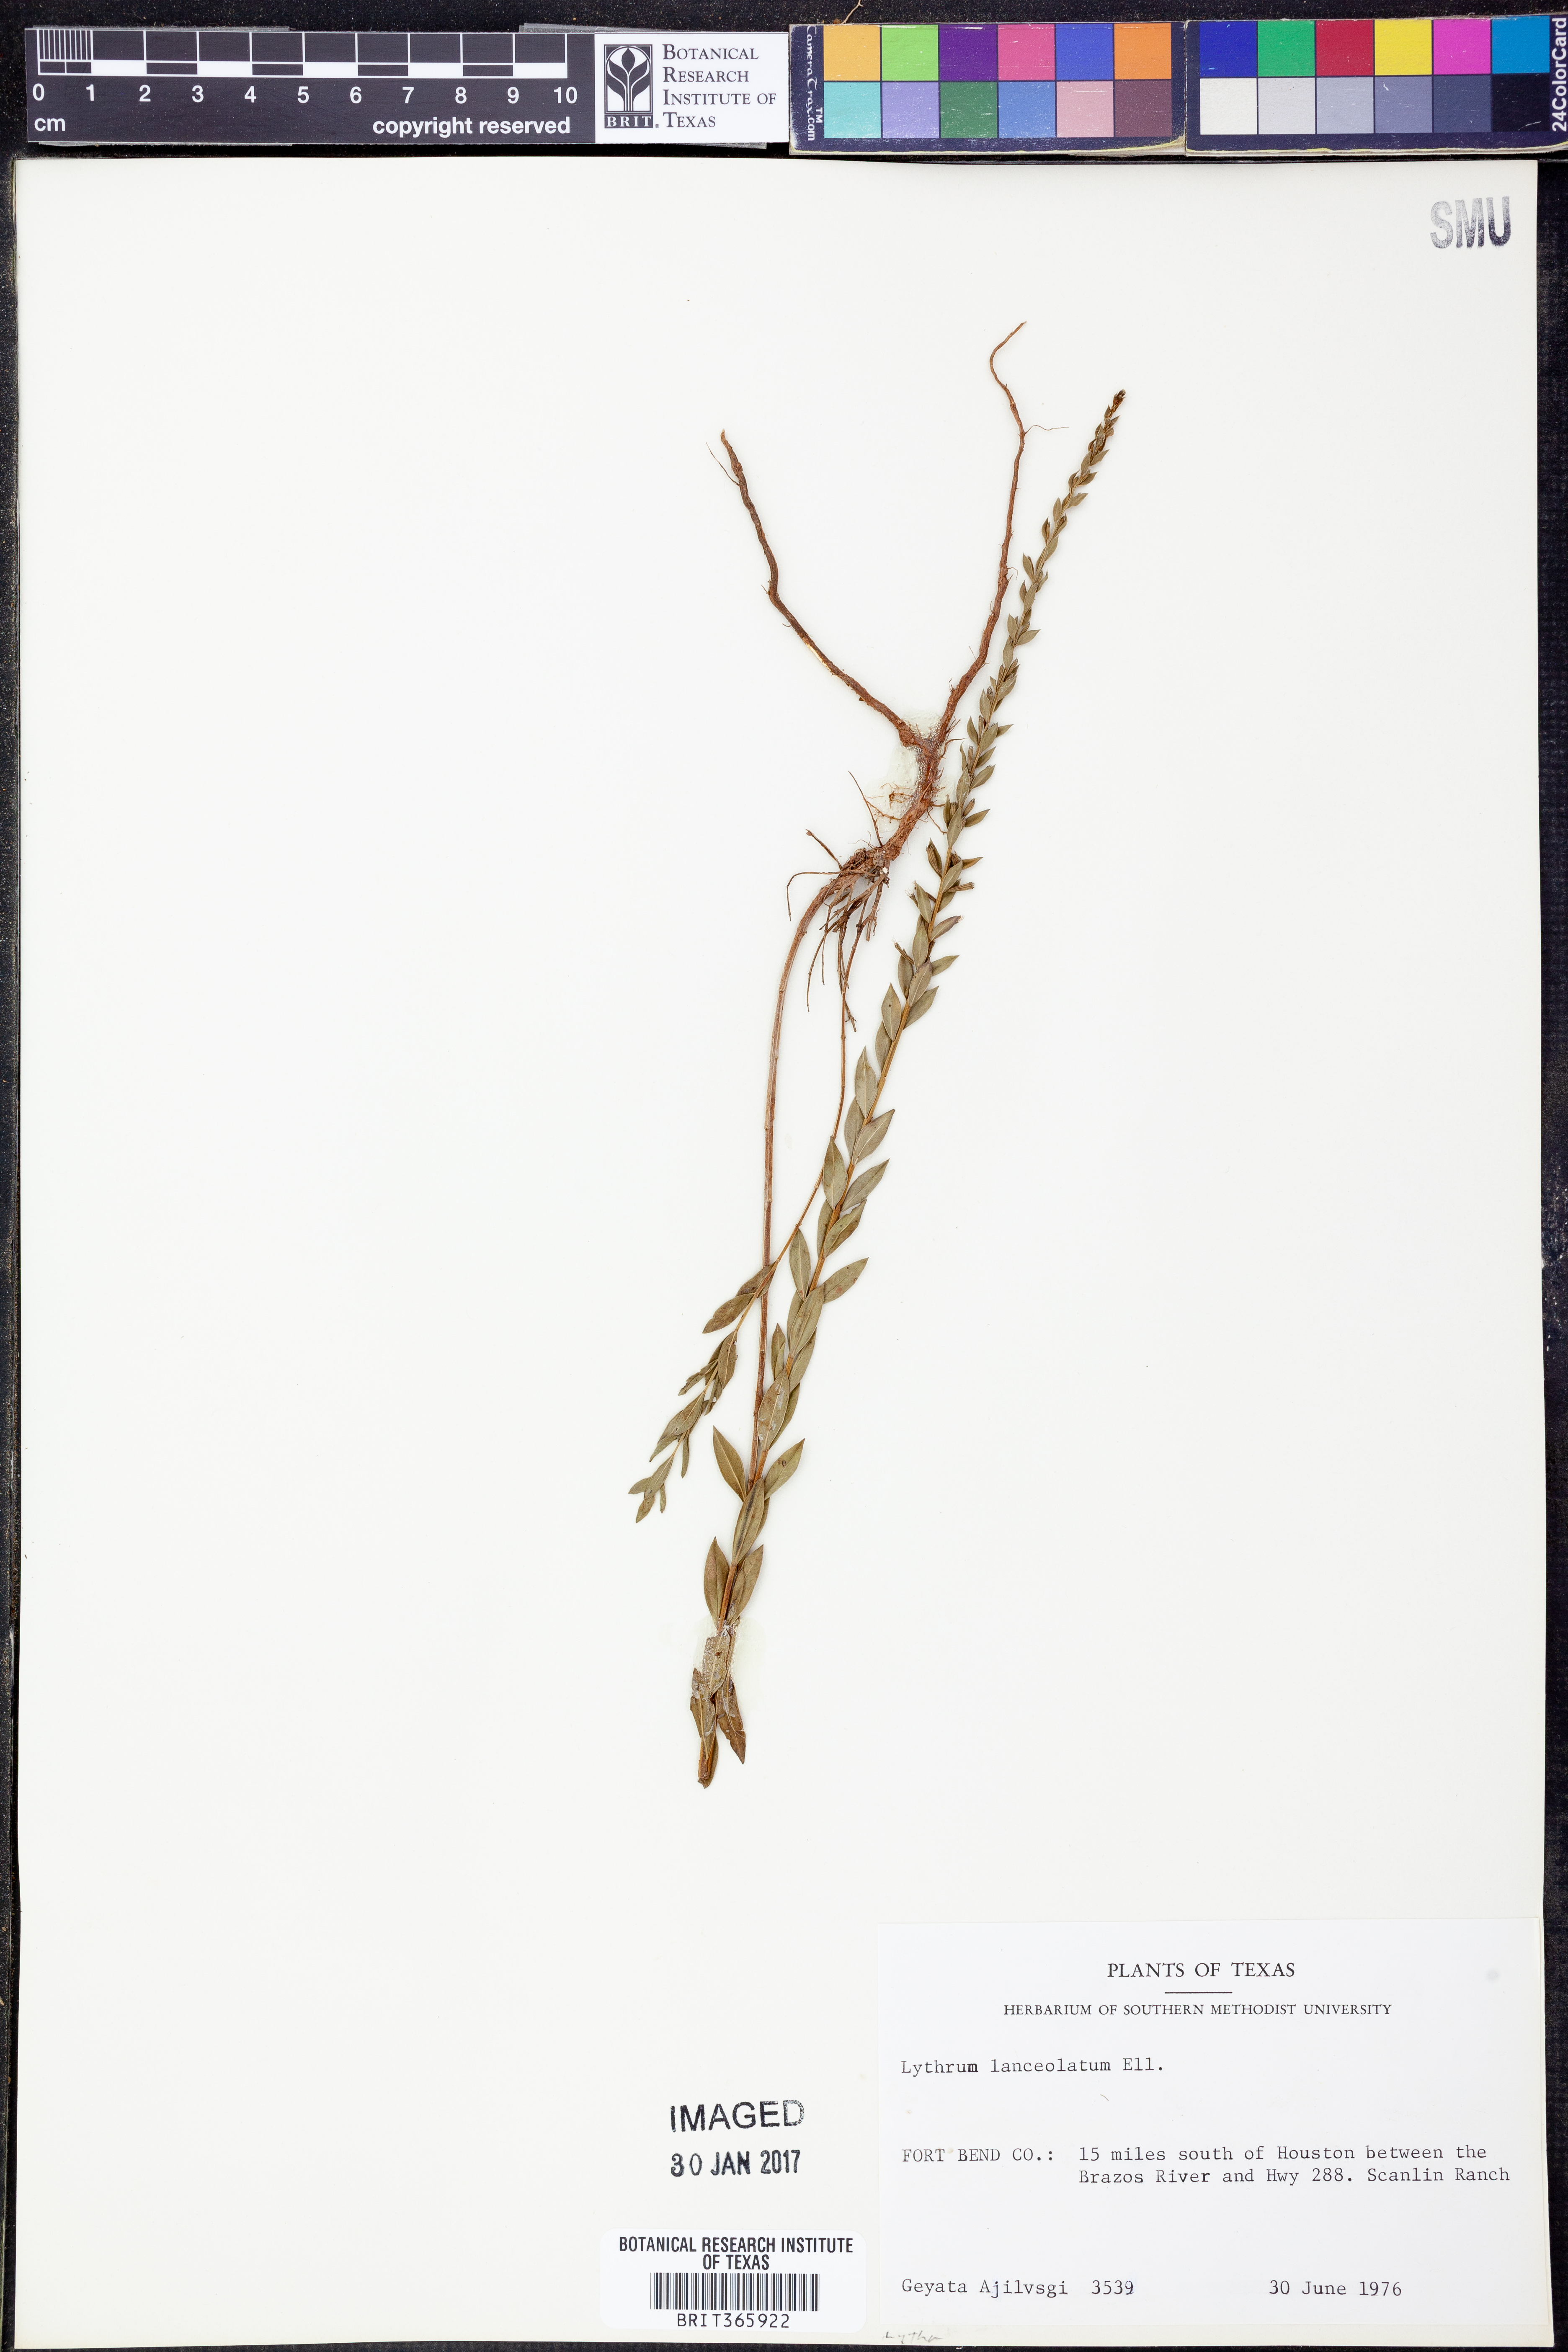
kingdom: Plantae
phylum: Tracheophyta
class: Magnoliopsida
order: Myrtales
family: Lythraceae
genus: Lythrum
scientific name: Lythrum alatum
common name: Winged loosestrife
